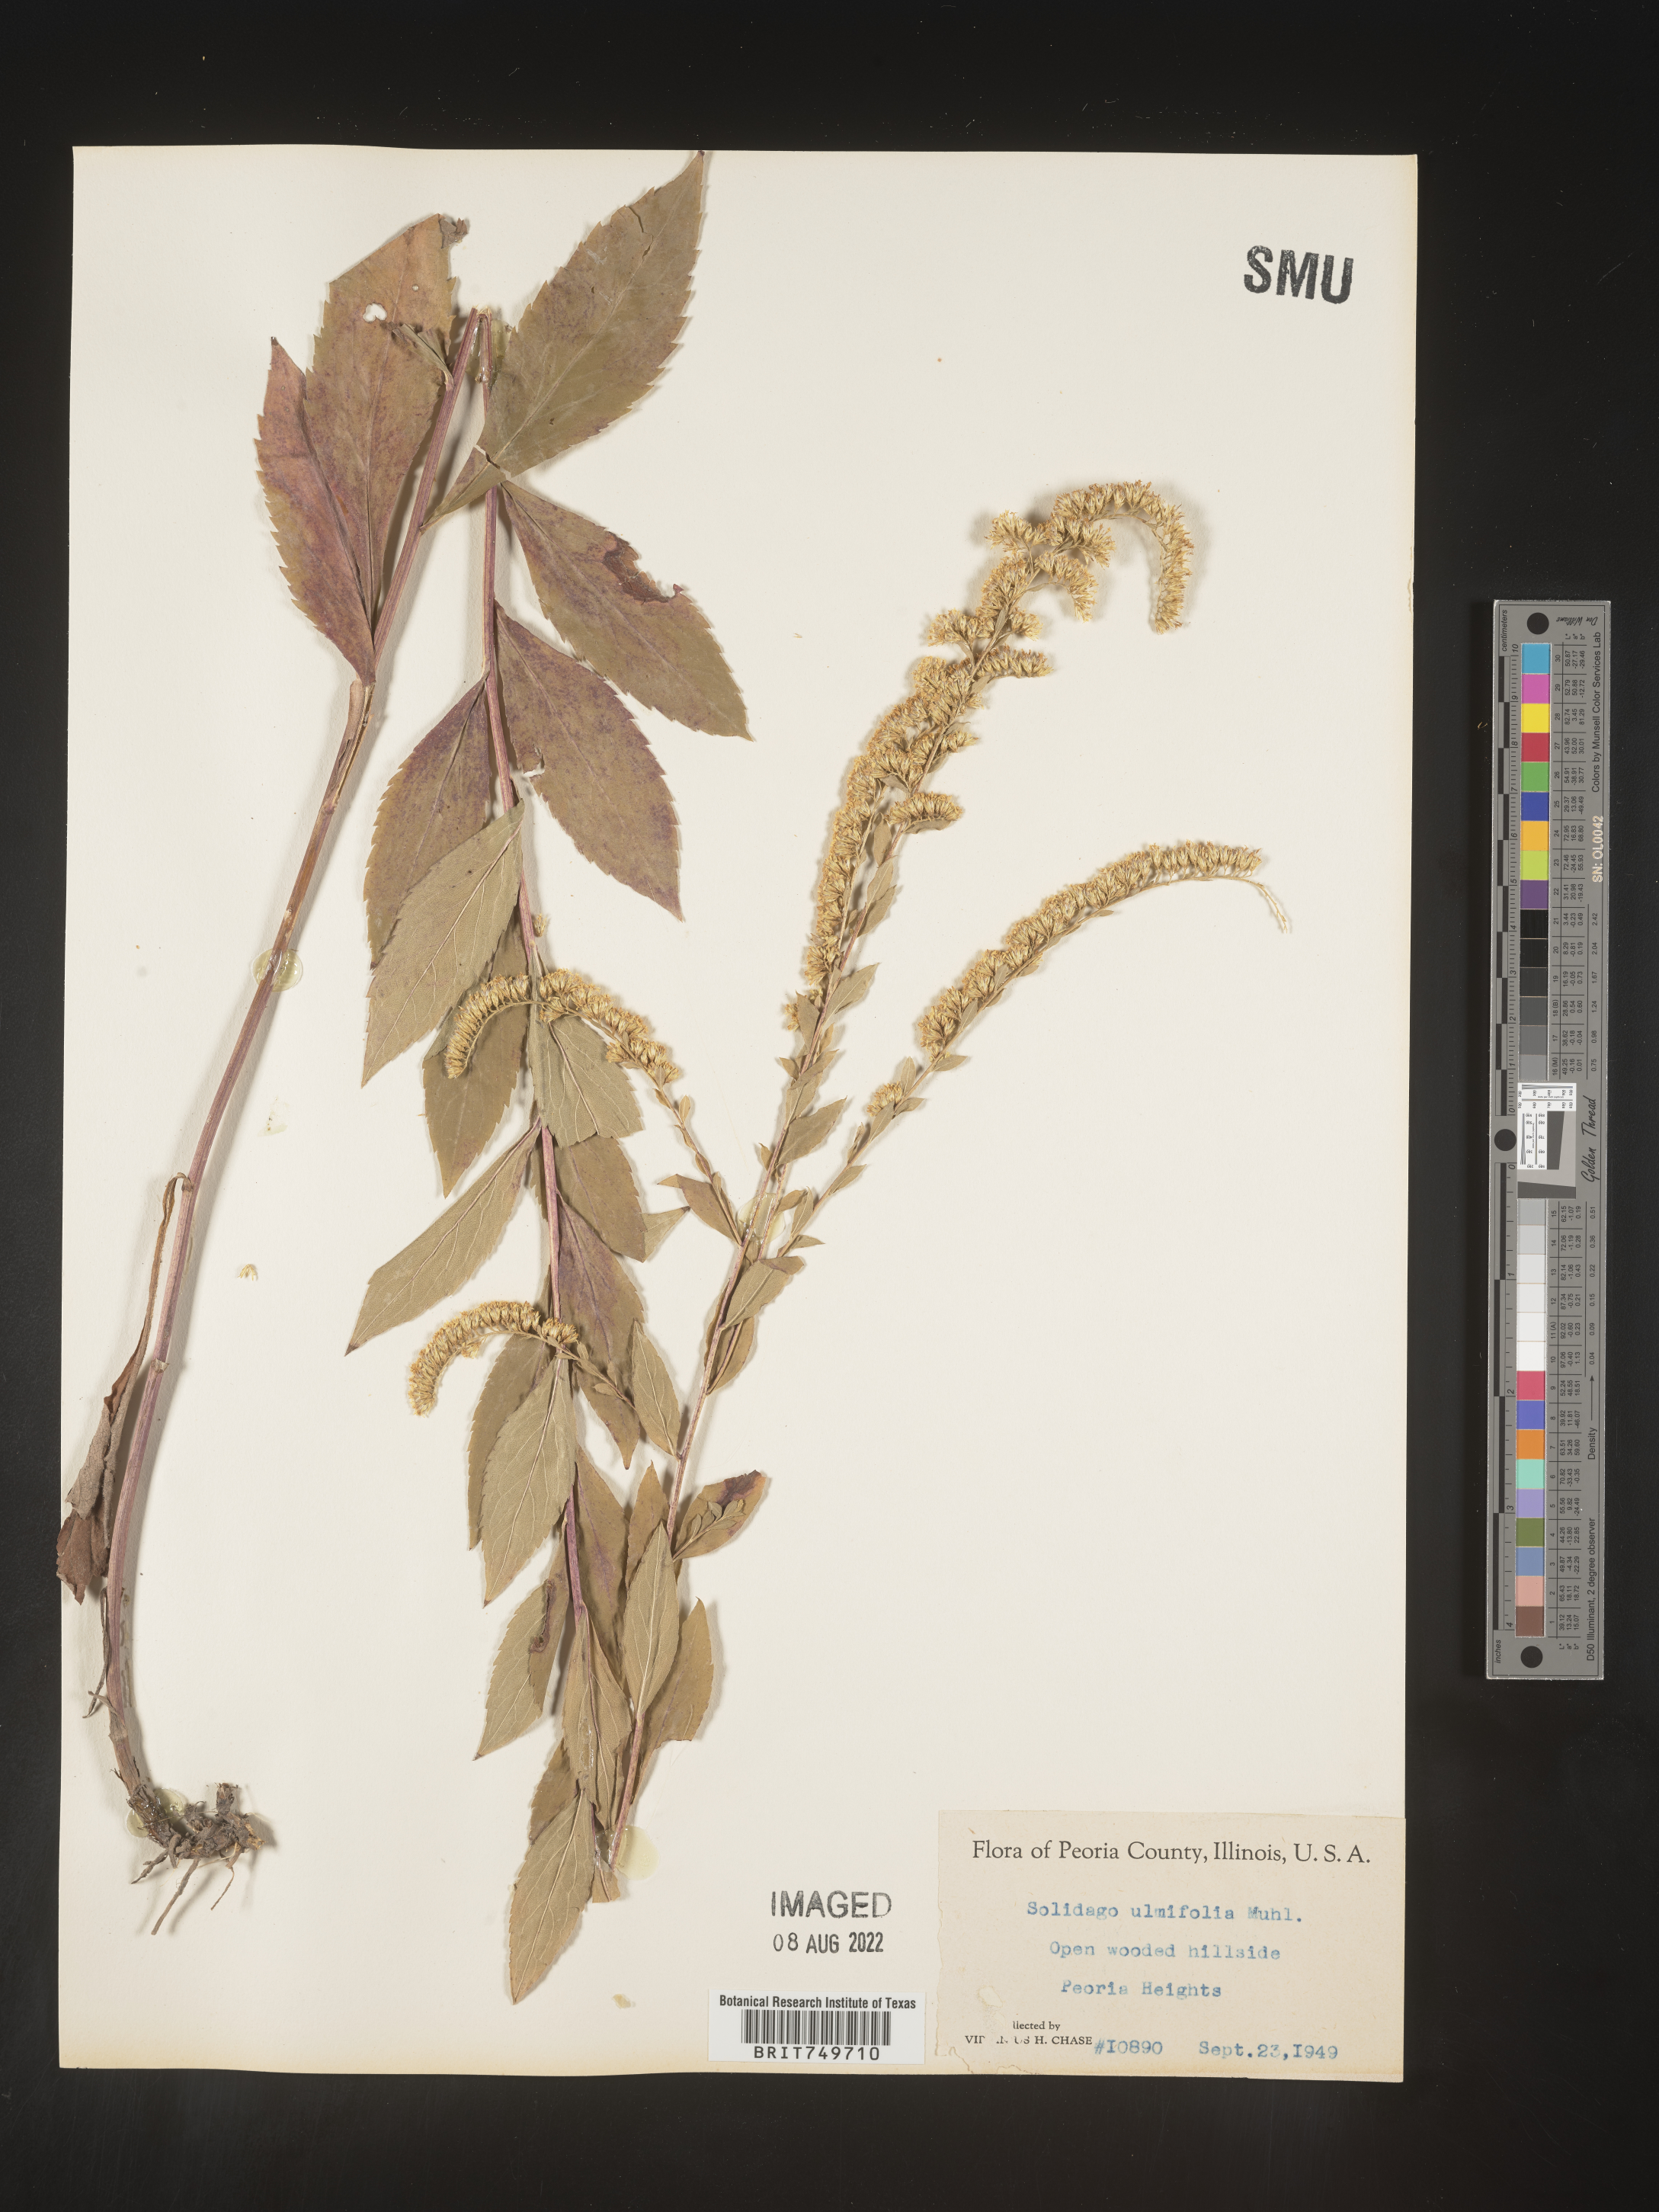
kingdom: Plantae
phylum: Tracheophyta
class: Magnoliopsida
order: Asterales
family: Asteraceae
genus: Solidago
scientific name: Solidago ulmifolia
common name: Elm-leaf goldenrod
